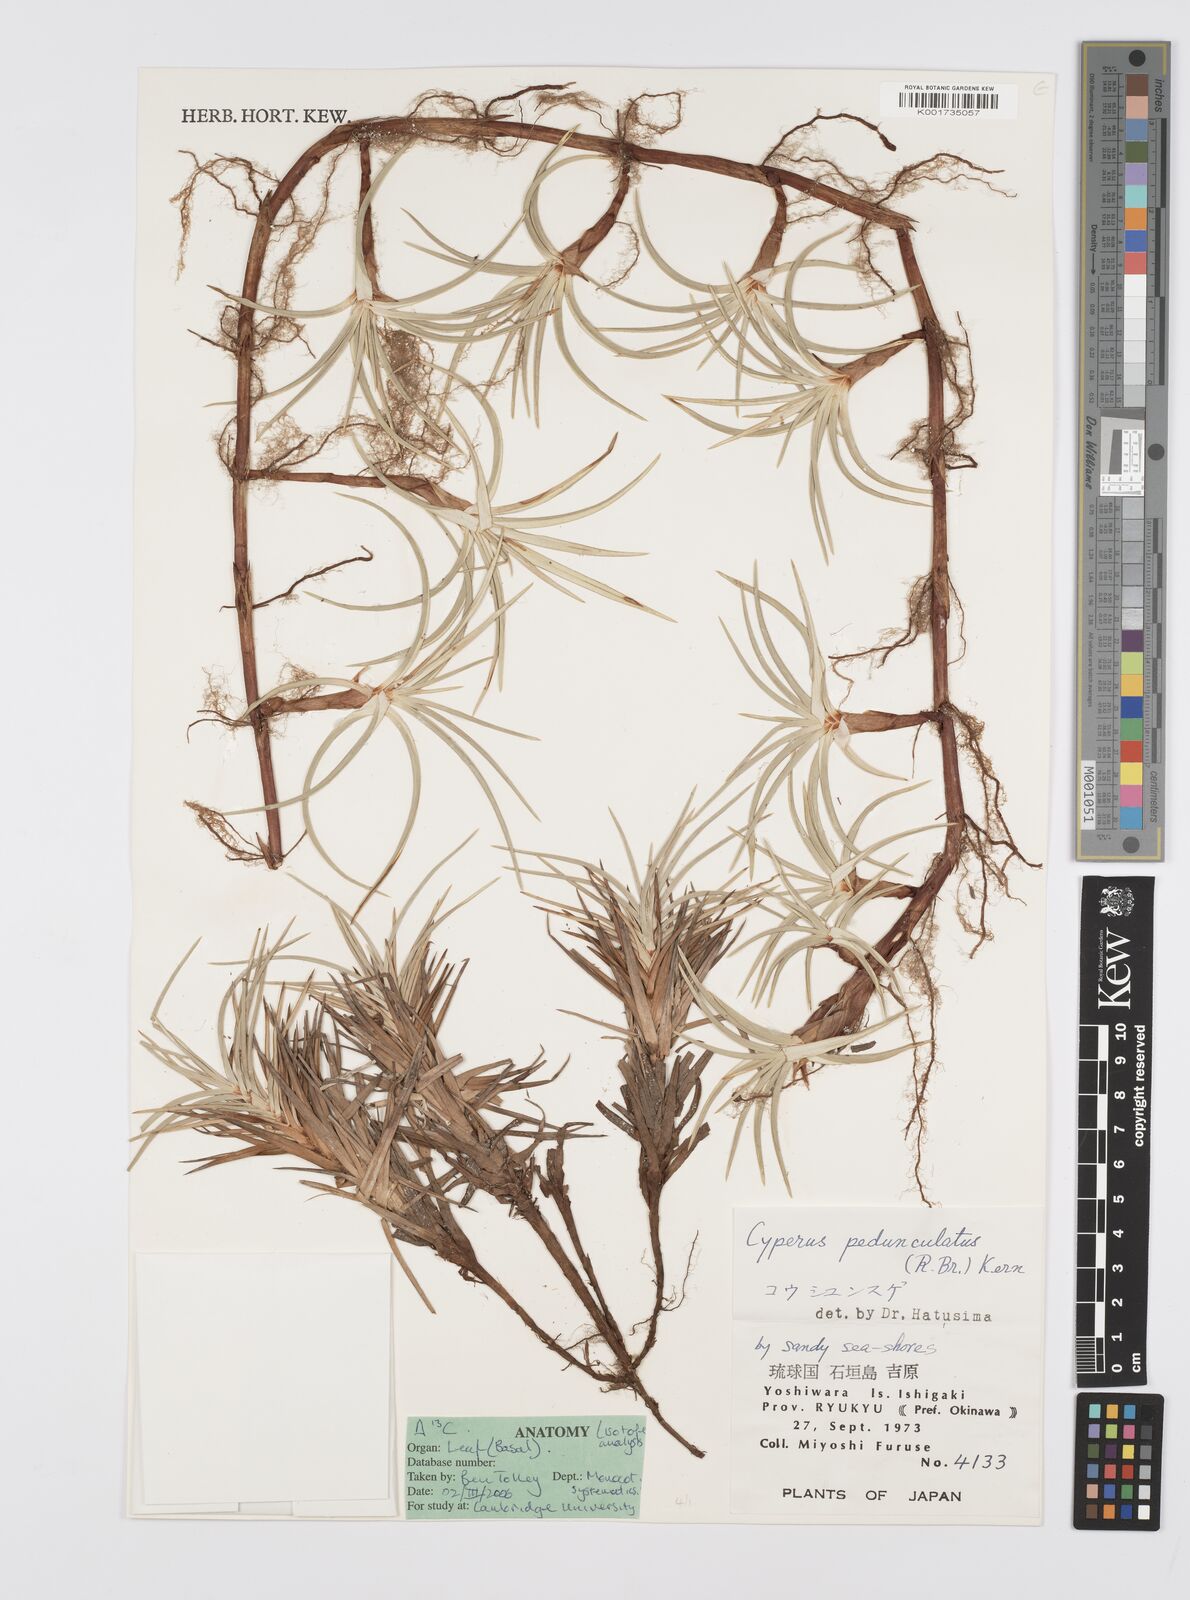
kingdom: Plantae
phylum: Tracheophyta
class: Liliopsida
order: Poales
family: Cyperaceae
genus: Cyperus
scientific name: Cyperus
